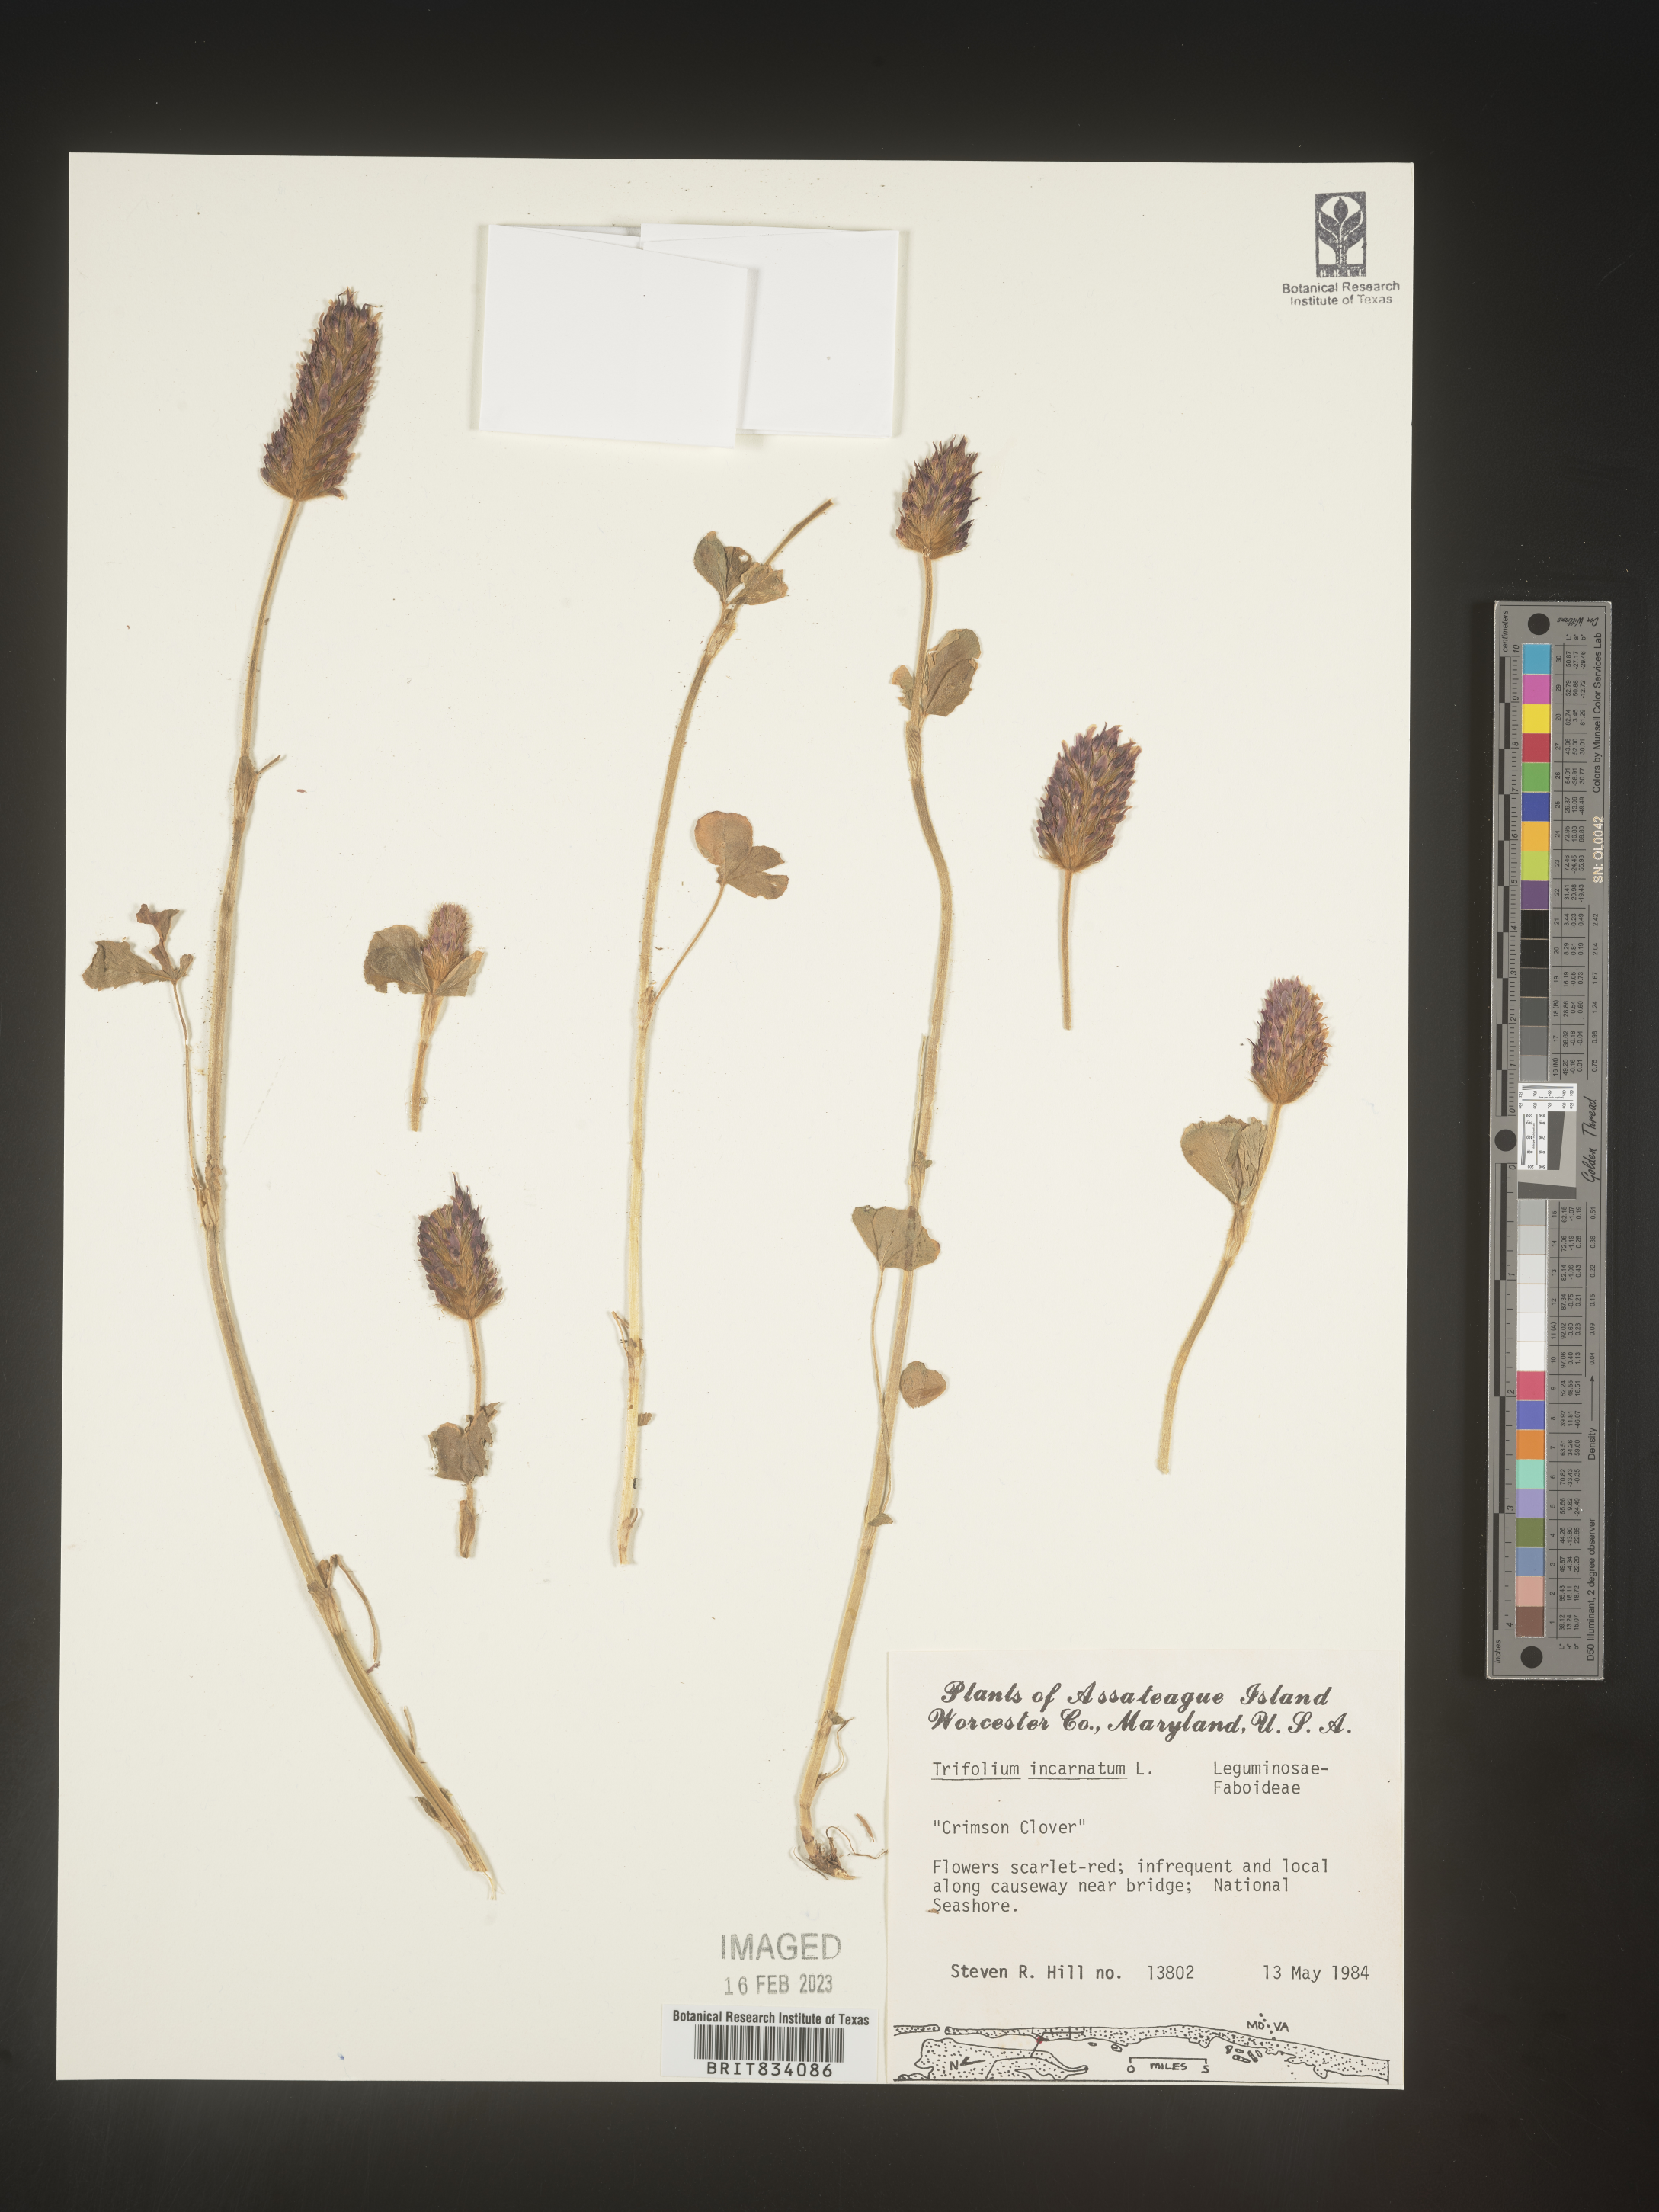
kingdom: Plantae
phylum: Tracheophyta
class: Magnoliopsida
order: Fabales
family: Fabaceae
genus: Trifolium
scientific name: Trifolium incarnatum
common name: Crimson clover
